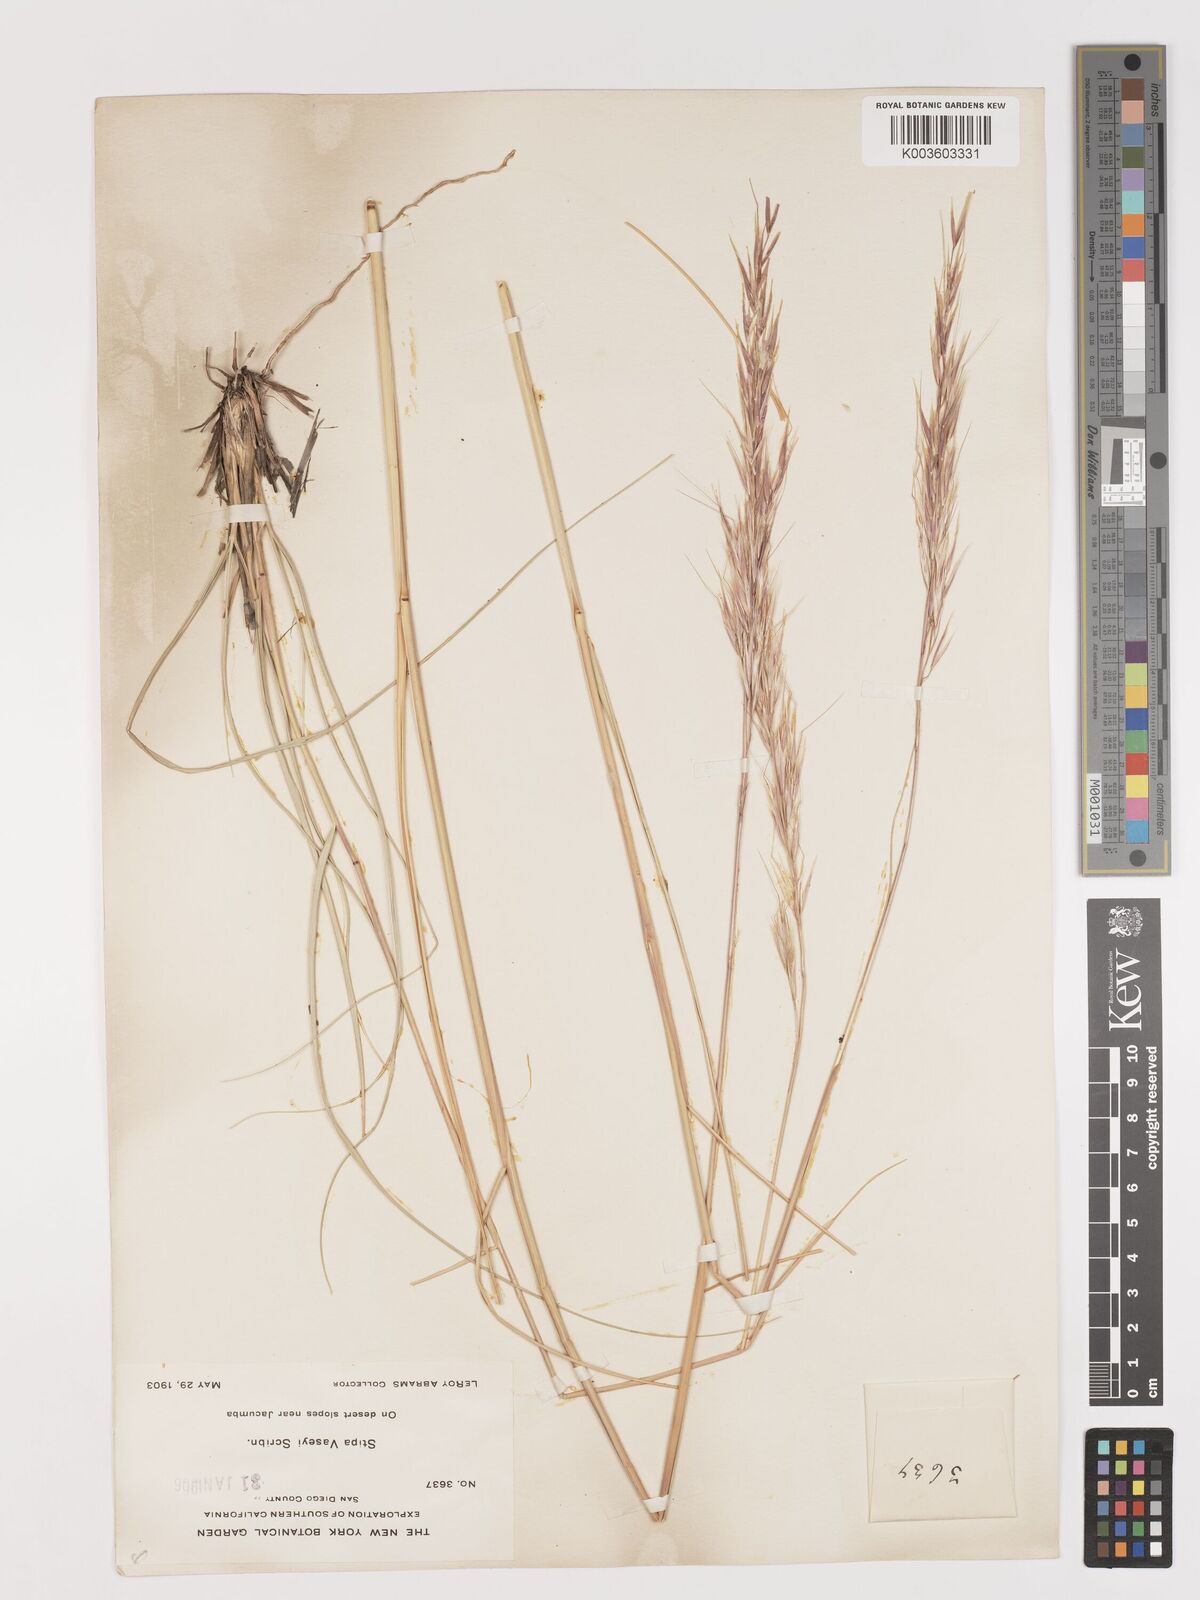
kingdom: Plantae
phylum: Tracheophyta
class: Liliopsida
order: Poales
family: Poaceae
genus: Hesperostipa
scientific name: Hesperostipa comata
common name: Needle-and-thread grass
